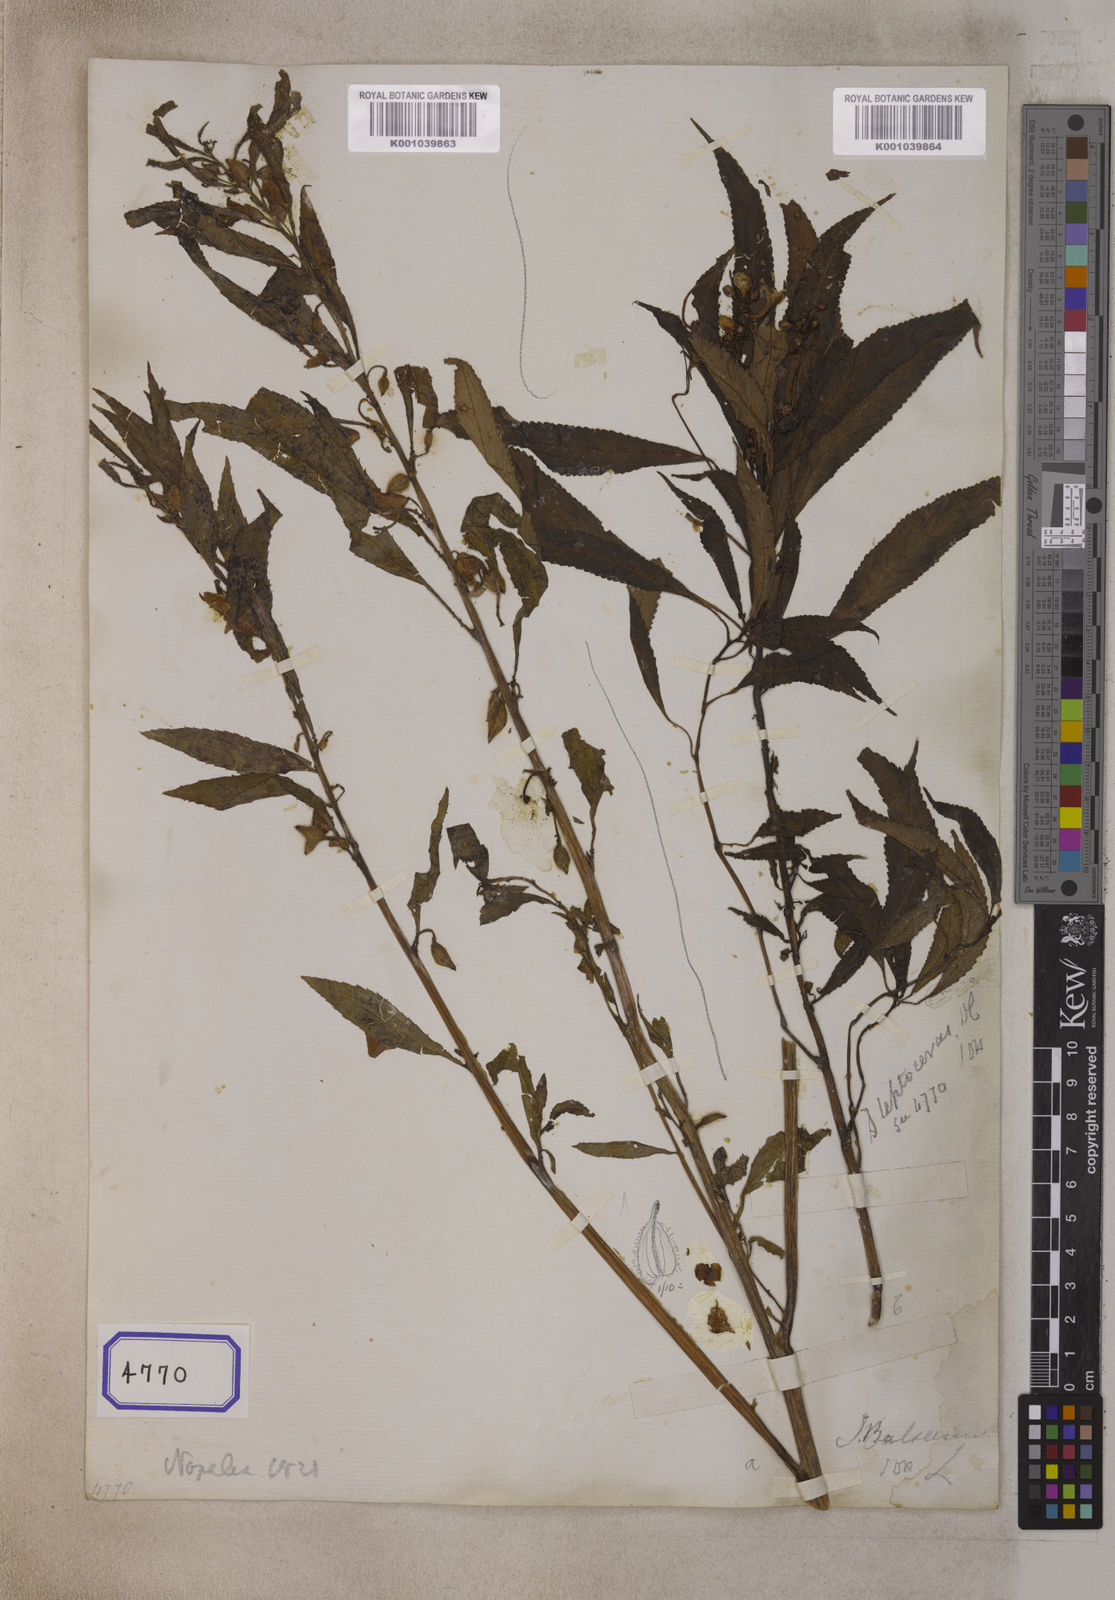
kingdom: Plantae
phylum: Tracheophyta
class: Magnoliopsida
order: Ericales
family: Balsaminaceae
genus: Impatiens
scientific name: Impatiens leptoceras
